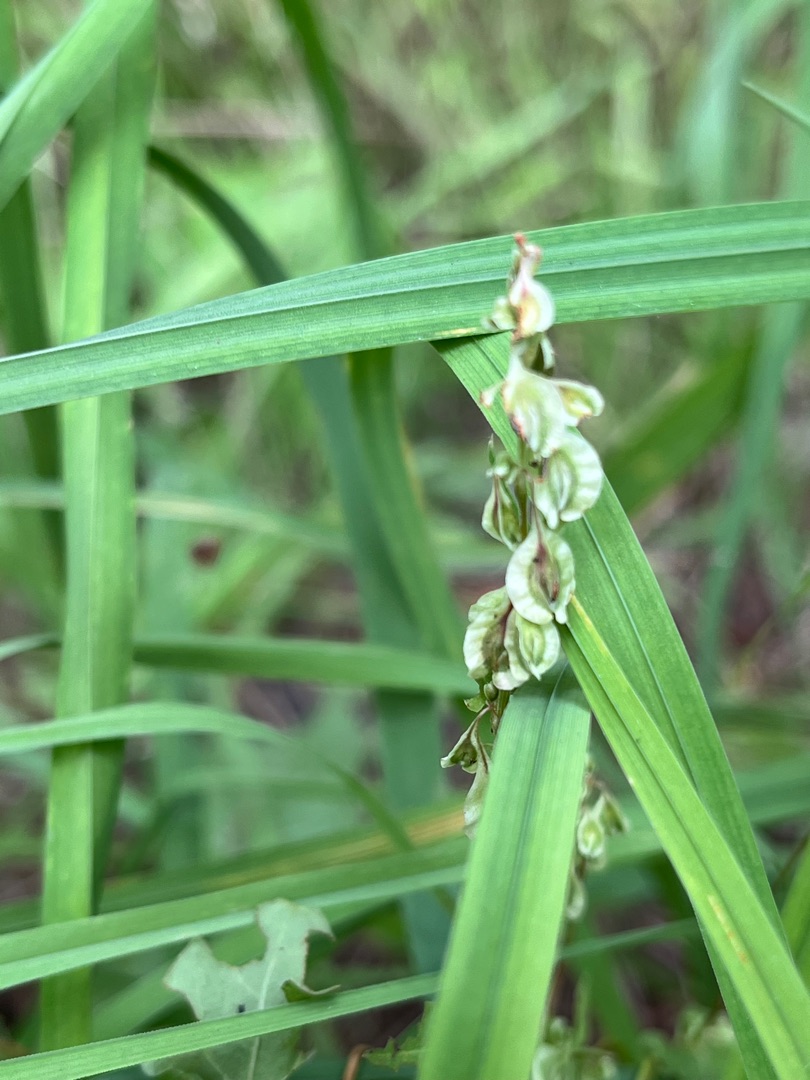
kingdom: Plantae
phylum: Tracheophyta
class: Magnoliopsida
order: Caryophyllales
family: Polygonaceae
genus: Fallopia
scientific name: Fallopia dumetorum
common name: Vinge-pileurt
